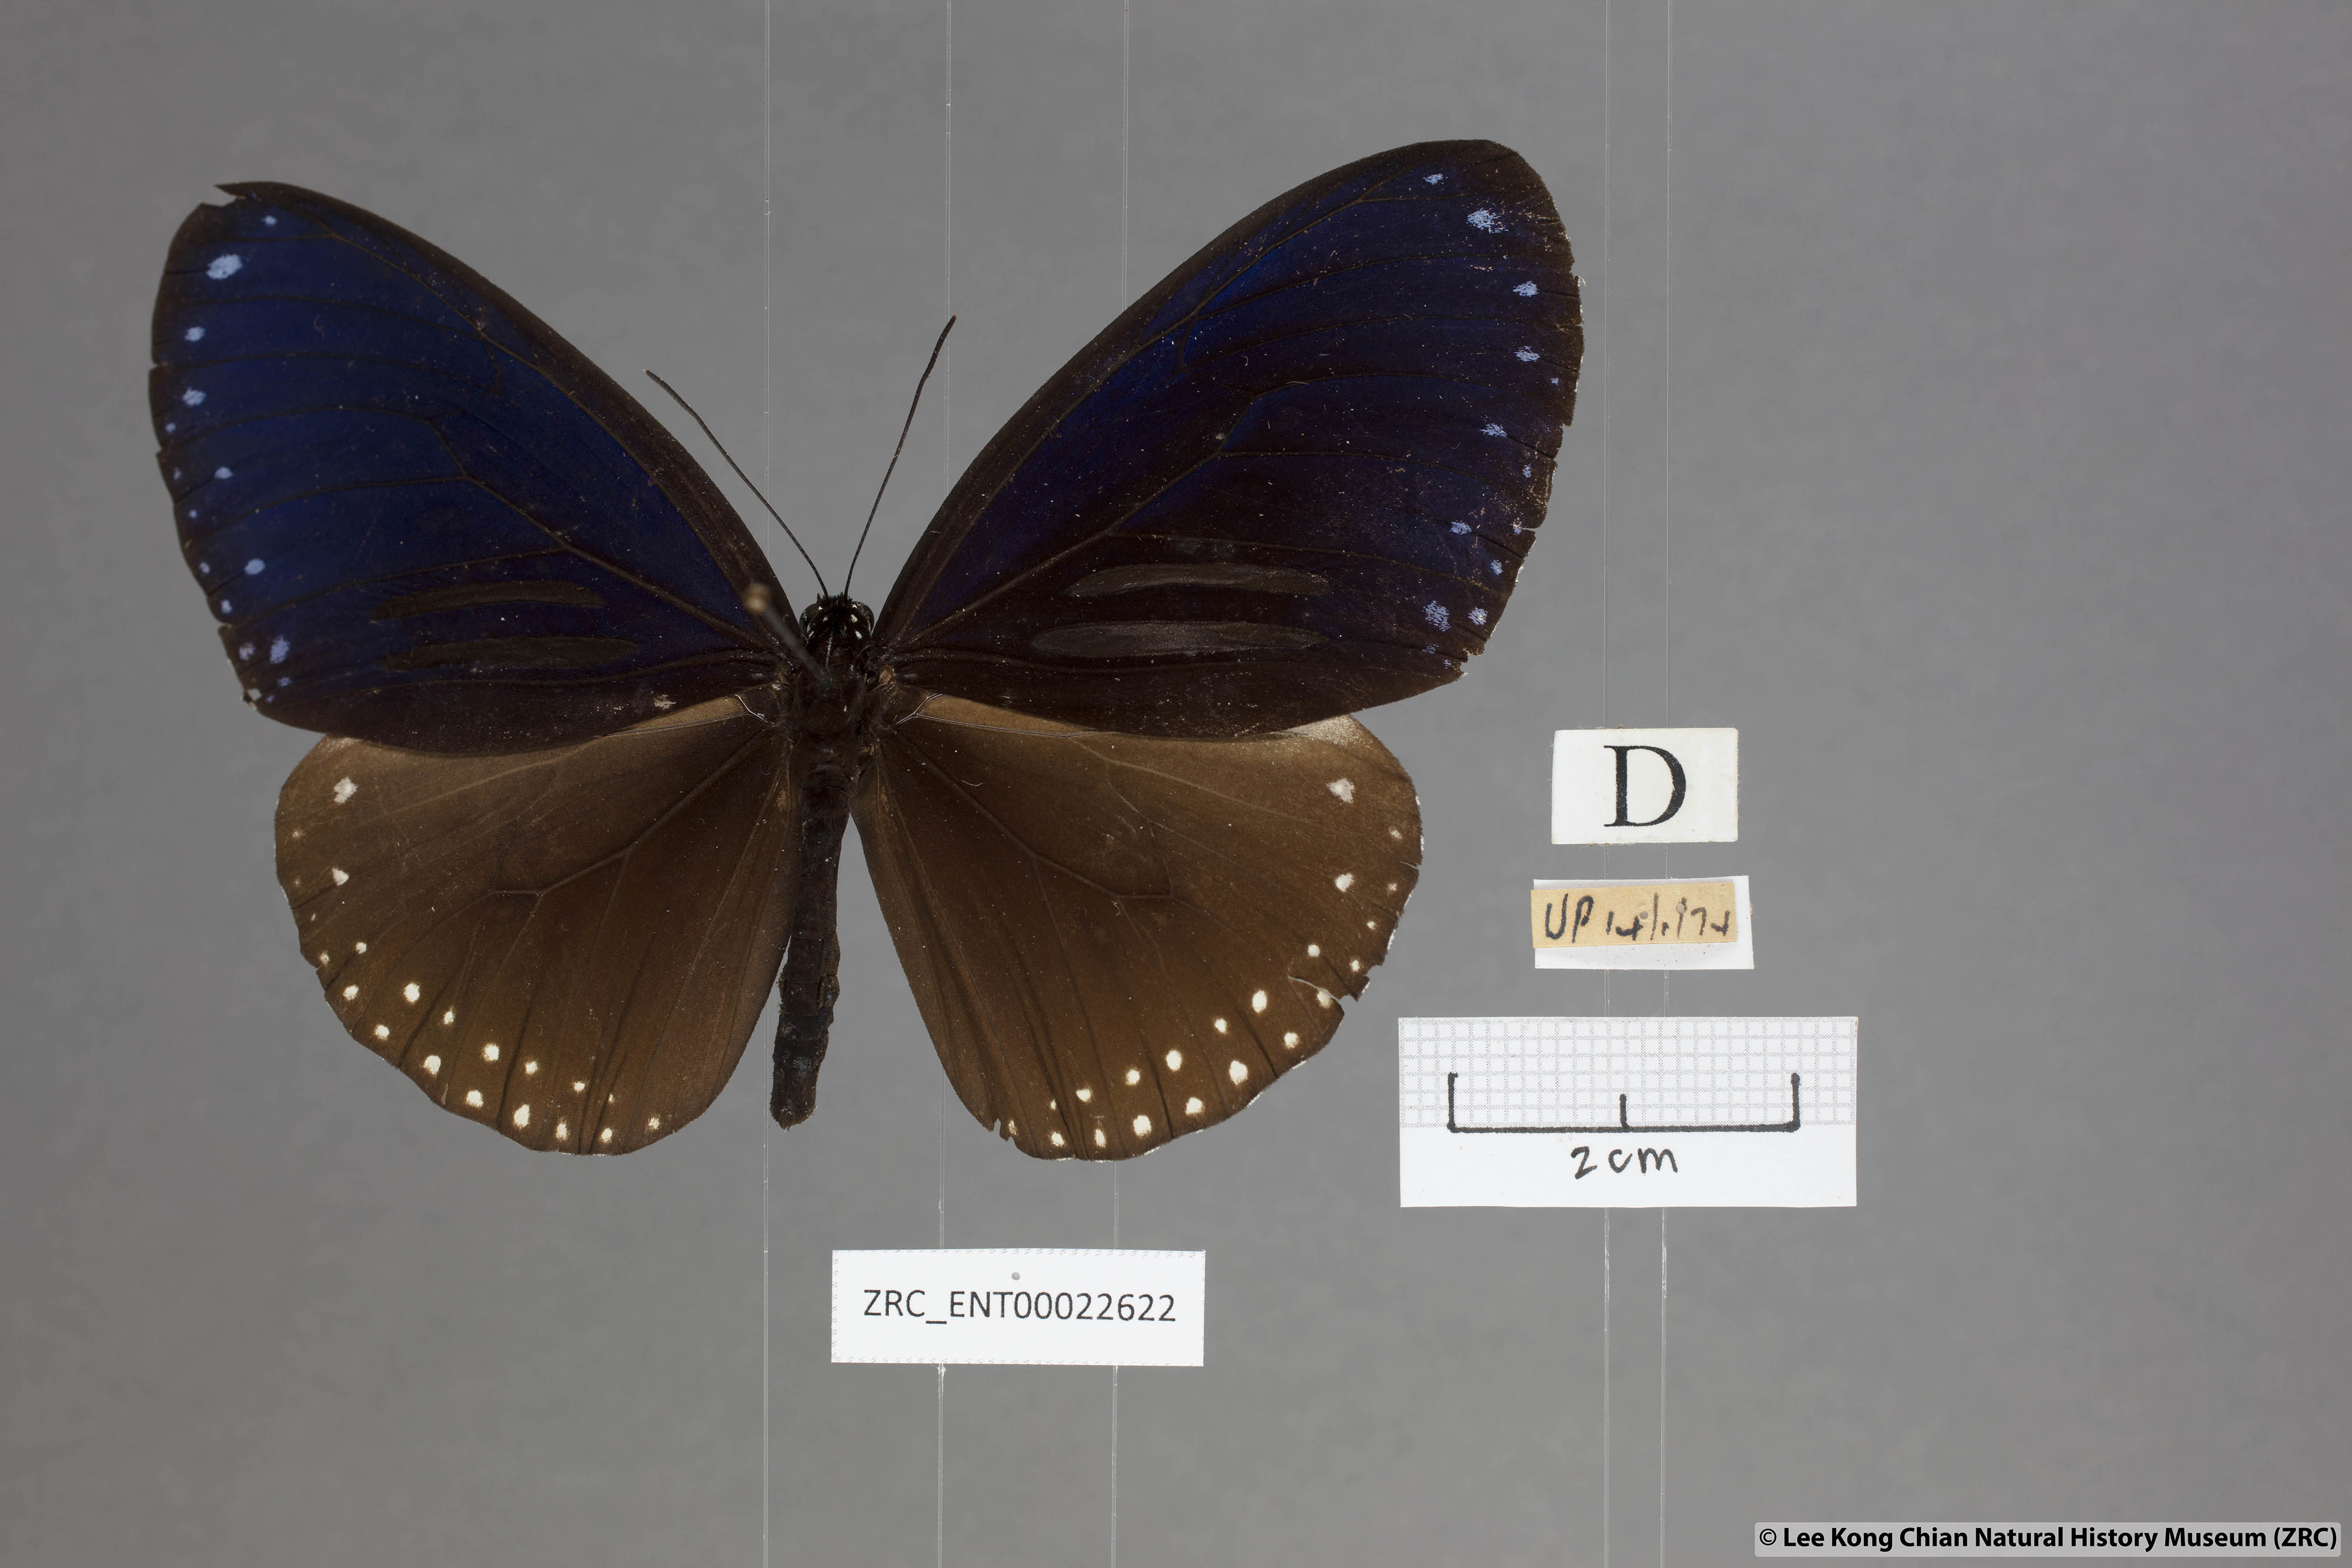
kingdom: Animalia
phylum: Arthropoda
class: Insecta
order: Lepidoptera
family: Nymphalidae
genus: Euploea
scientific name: Euploea sylvester
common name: Double-branded crow butterfly
